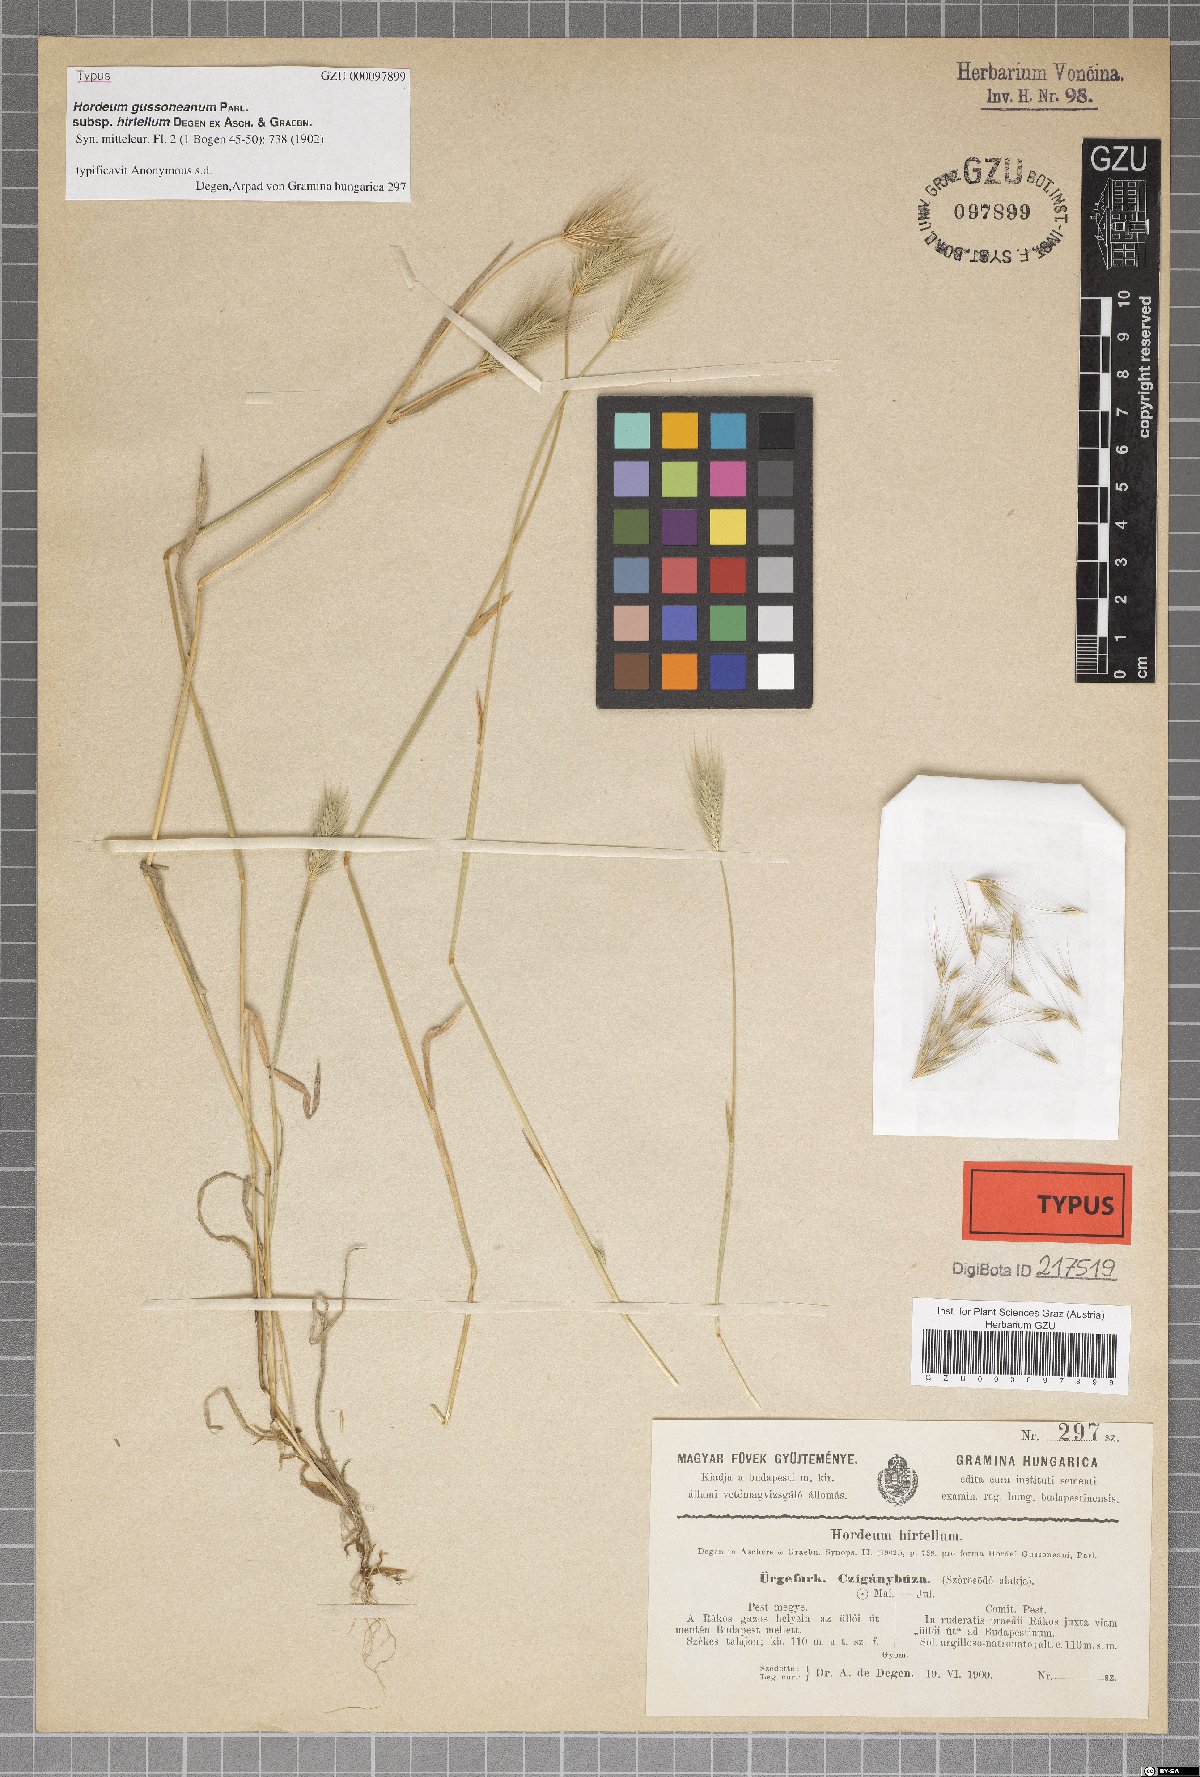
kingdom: Plantae
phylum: Tracheophyta
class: Liliopsida
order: Poales
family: Poaceae
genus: Hordeum
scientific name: Hordeum marinum
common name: Sea barley
